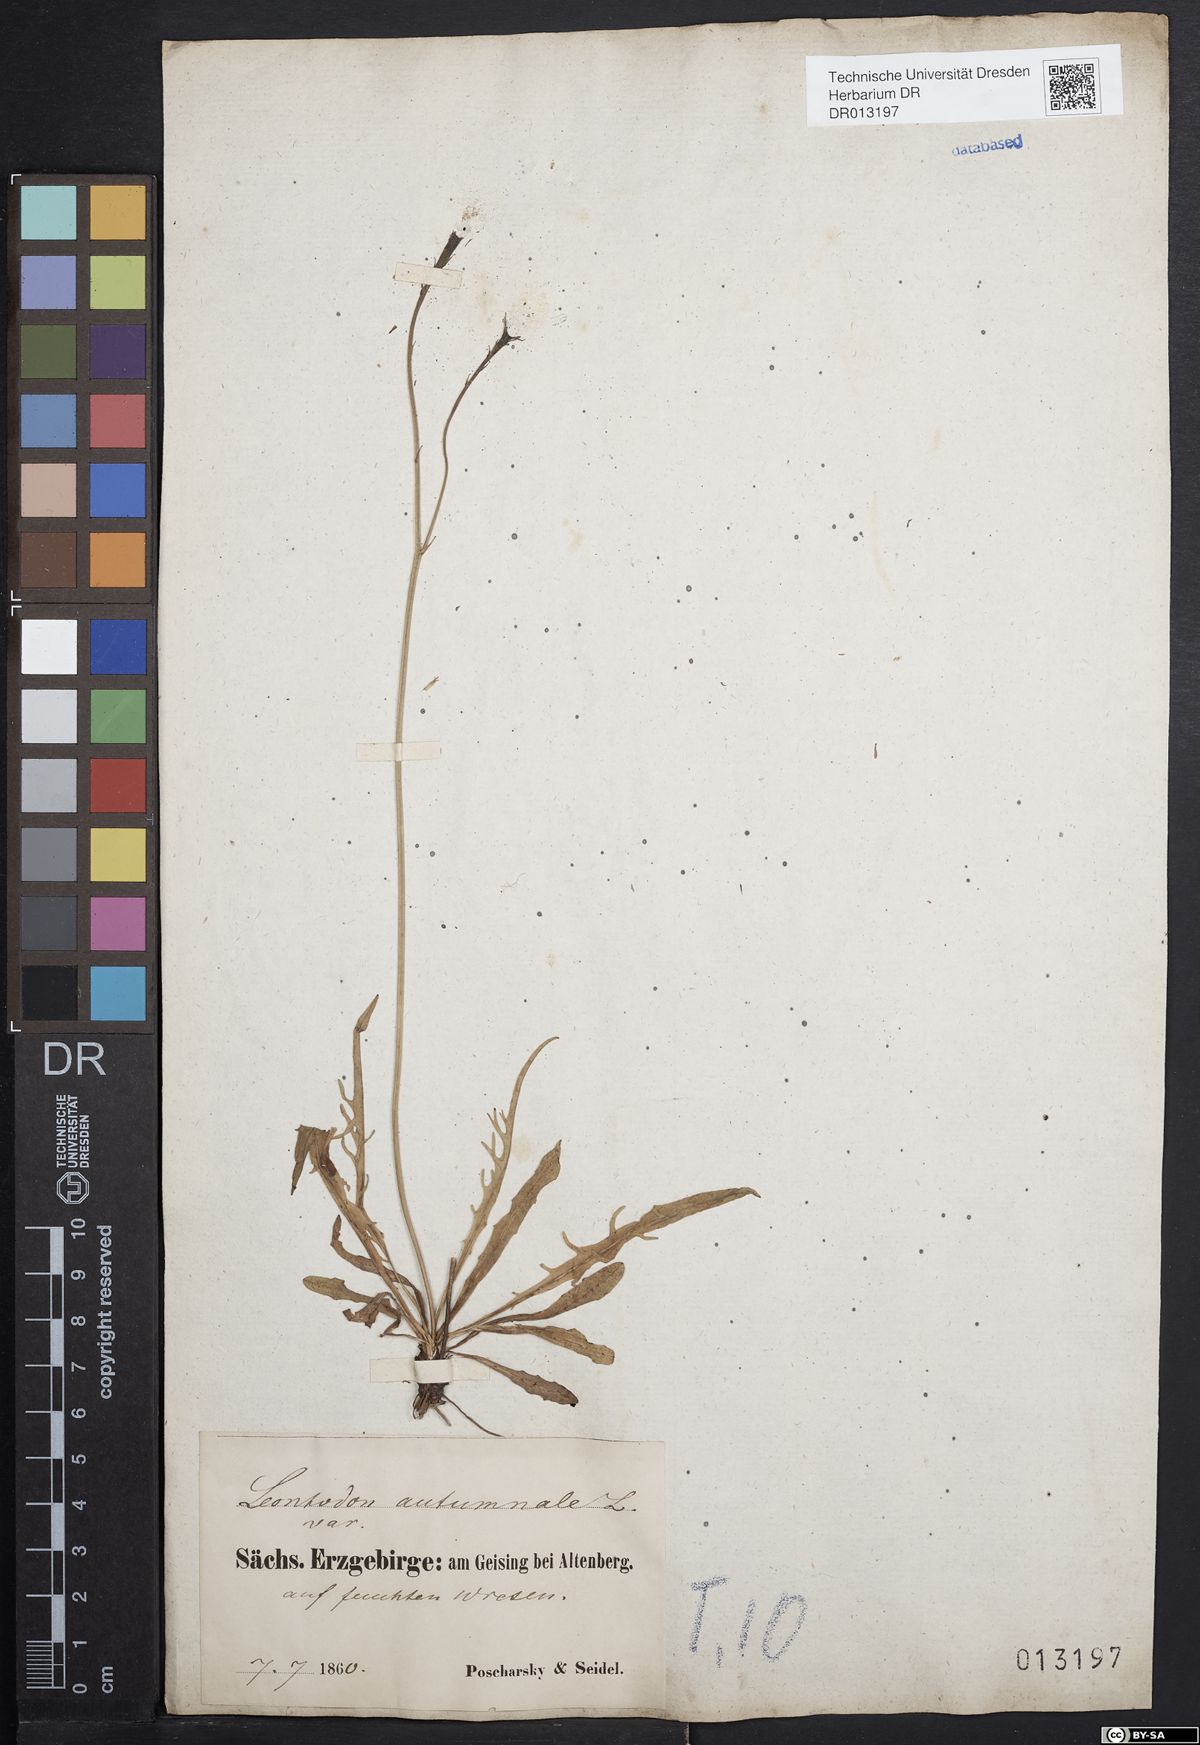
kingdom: Plantae
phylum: Tracheophyta
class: Magnoliopsida
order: Asterales
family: Asteraceae
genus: Scorzoneroides
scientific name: Scorzoneroides autumnalis
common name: Autumn hawkbit
